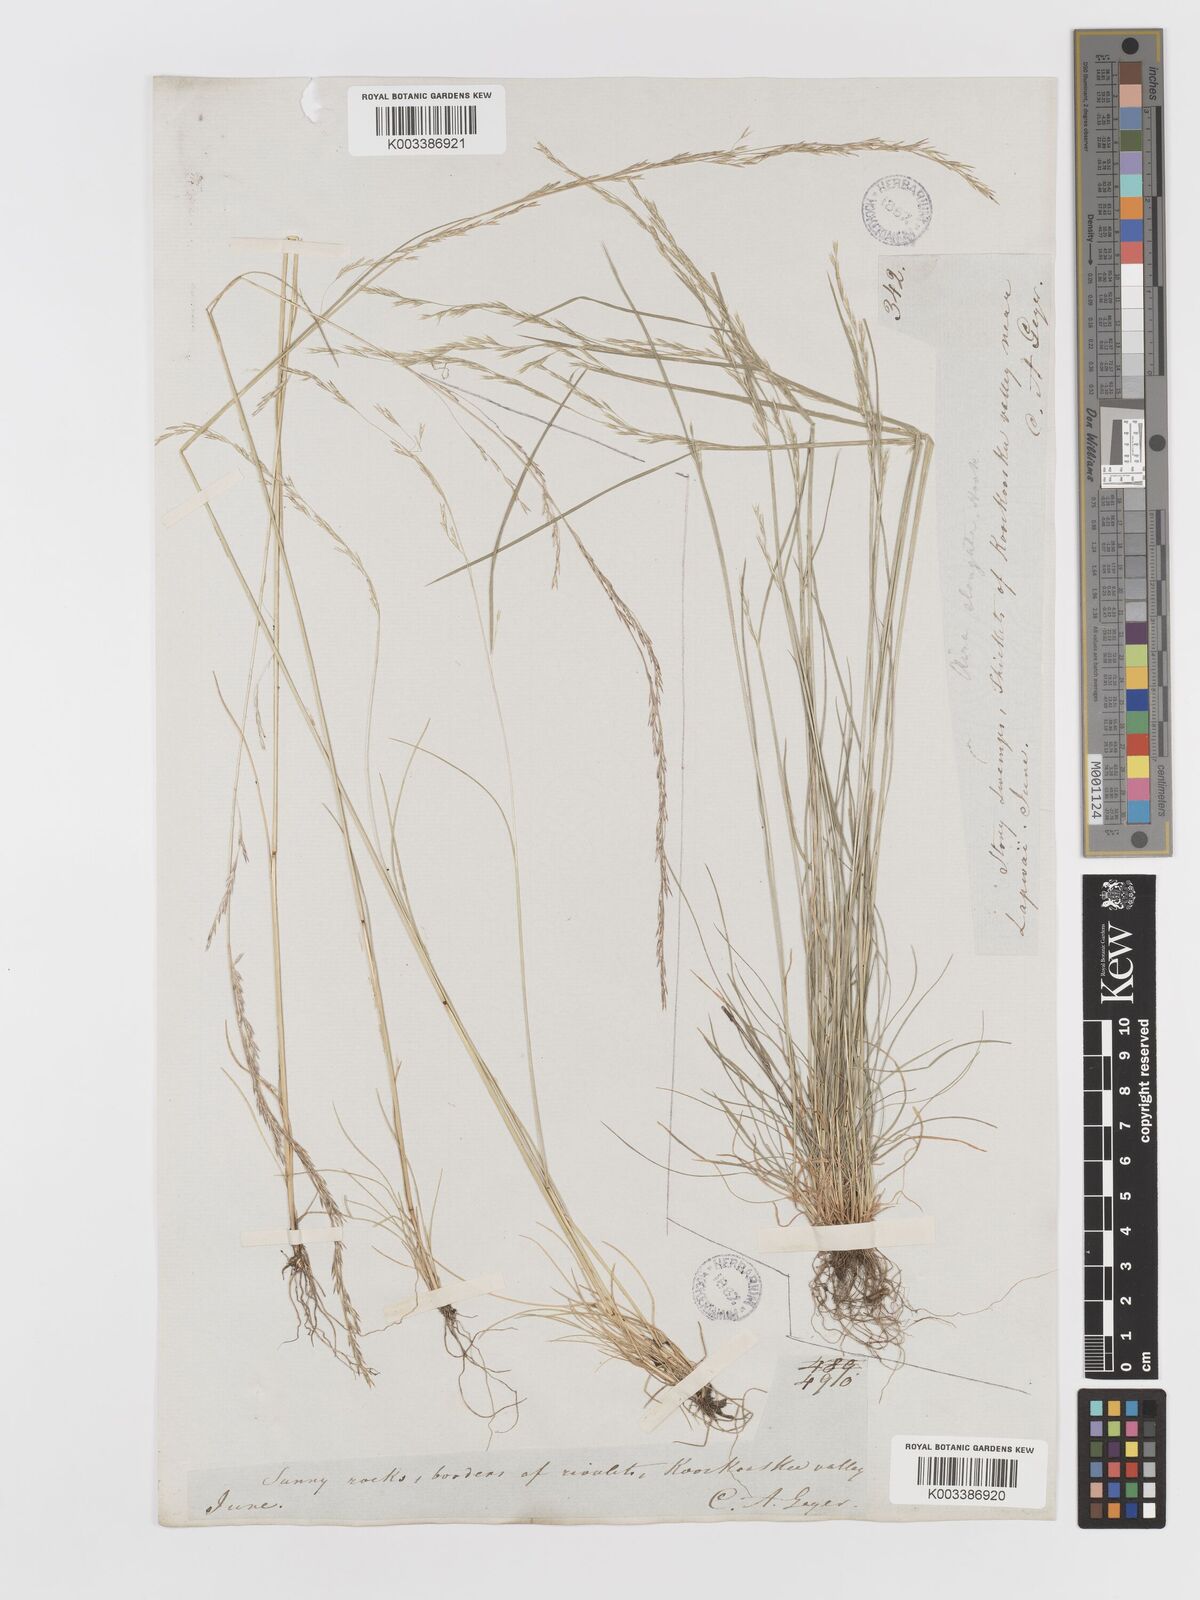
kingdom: Plantae
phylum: Tracheophyta
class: Liliopsida
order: Poales
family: Poaceae
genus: Deschampsia
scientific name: Deschampsia elongata
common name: Slender hairgrass
